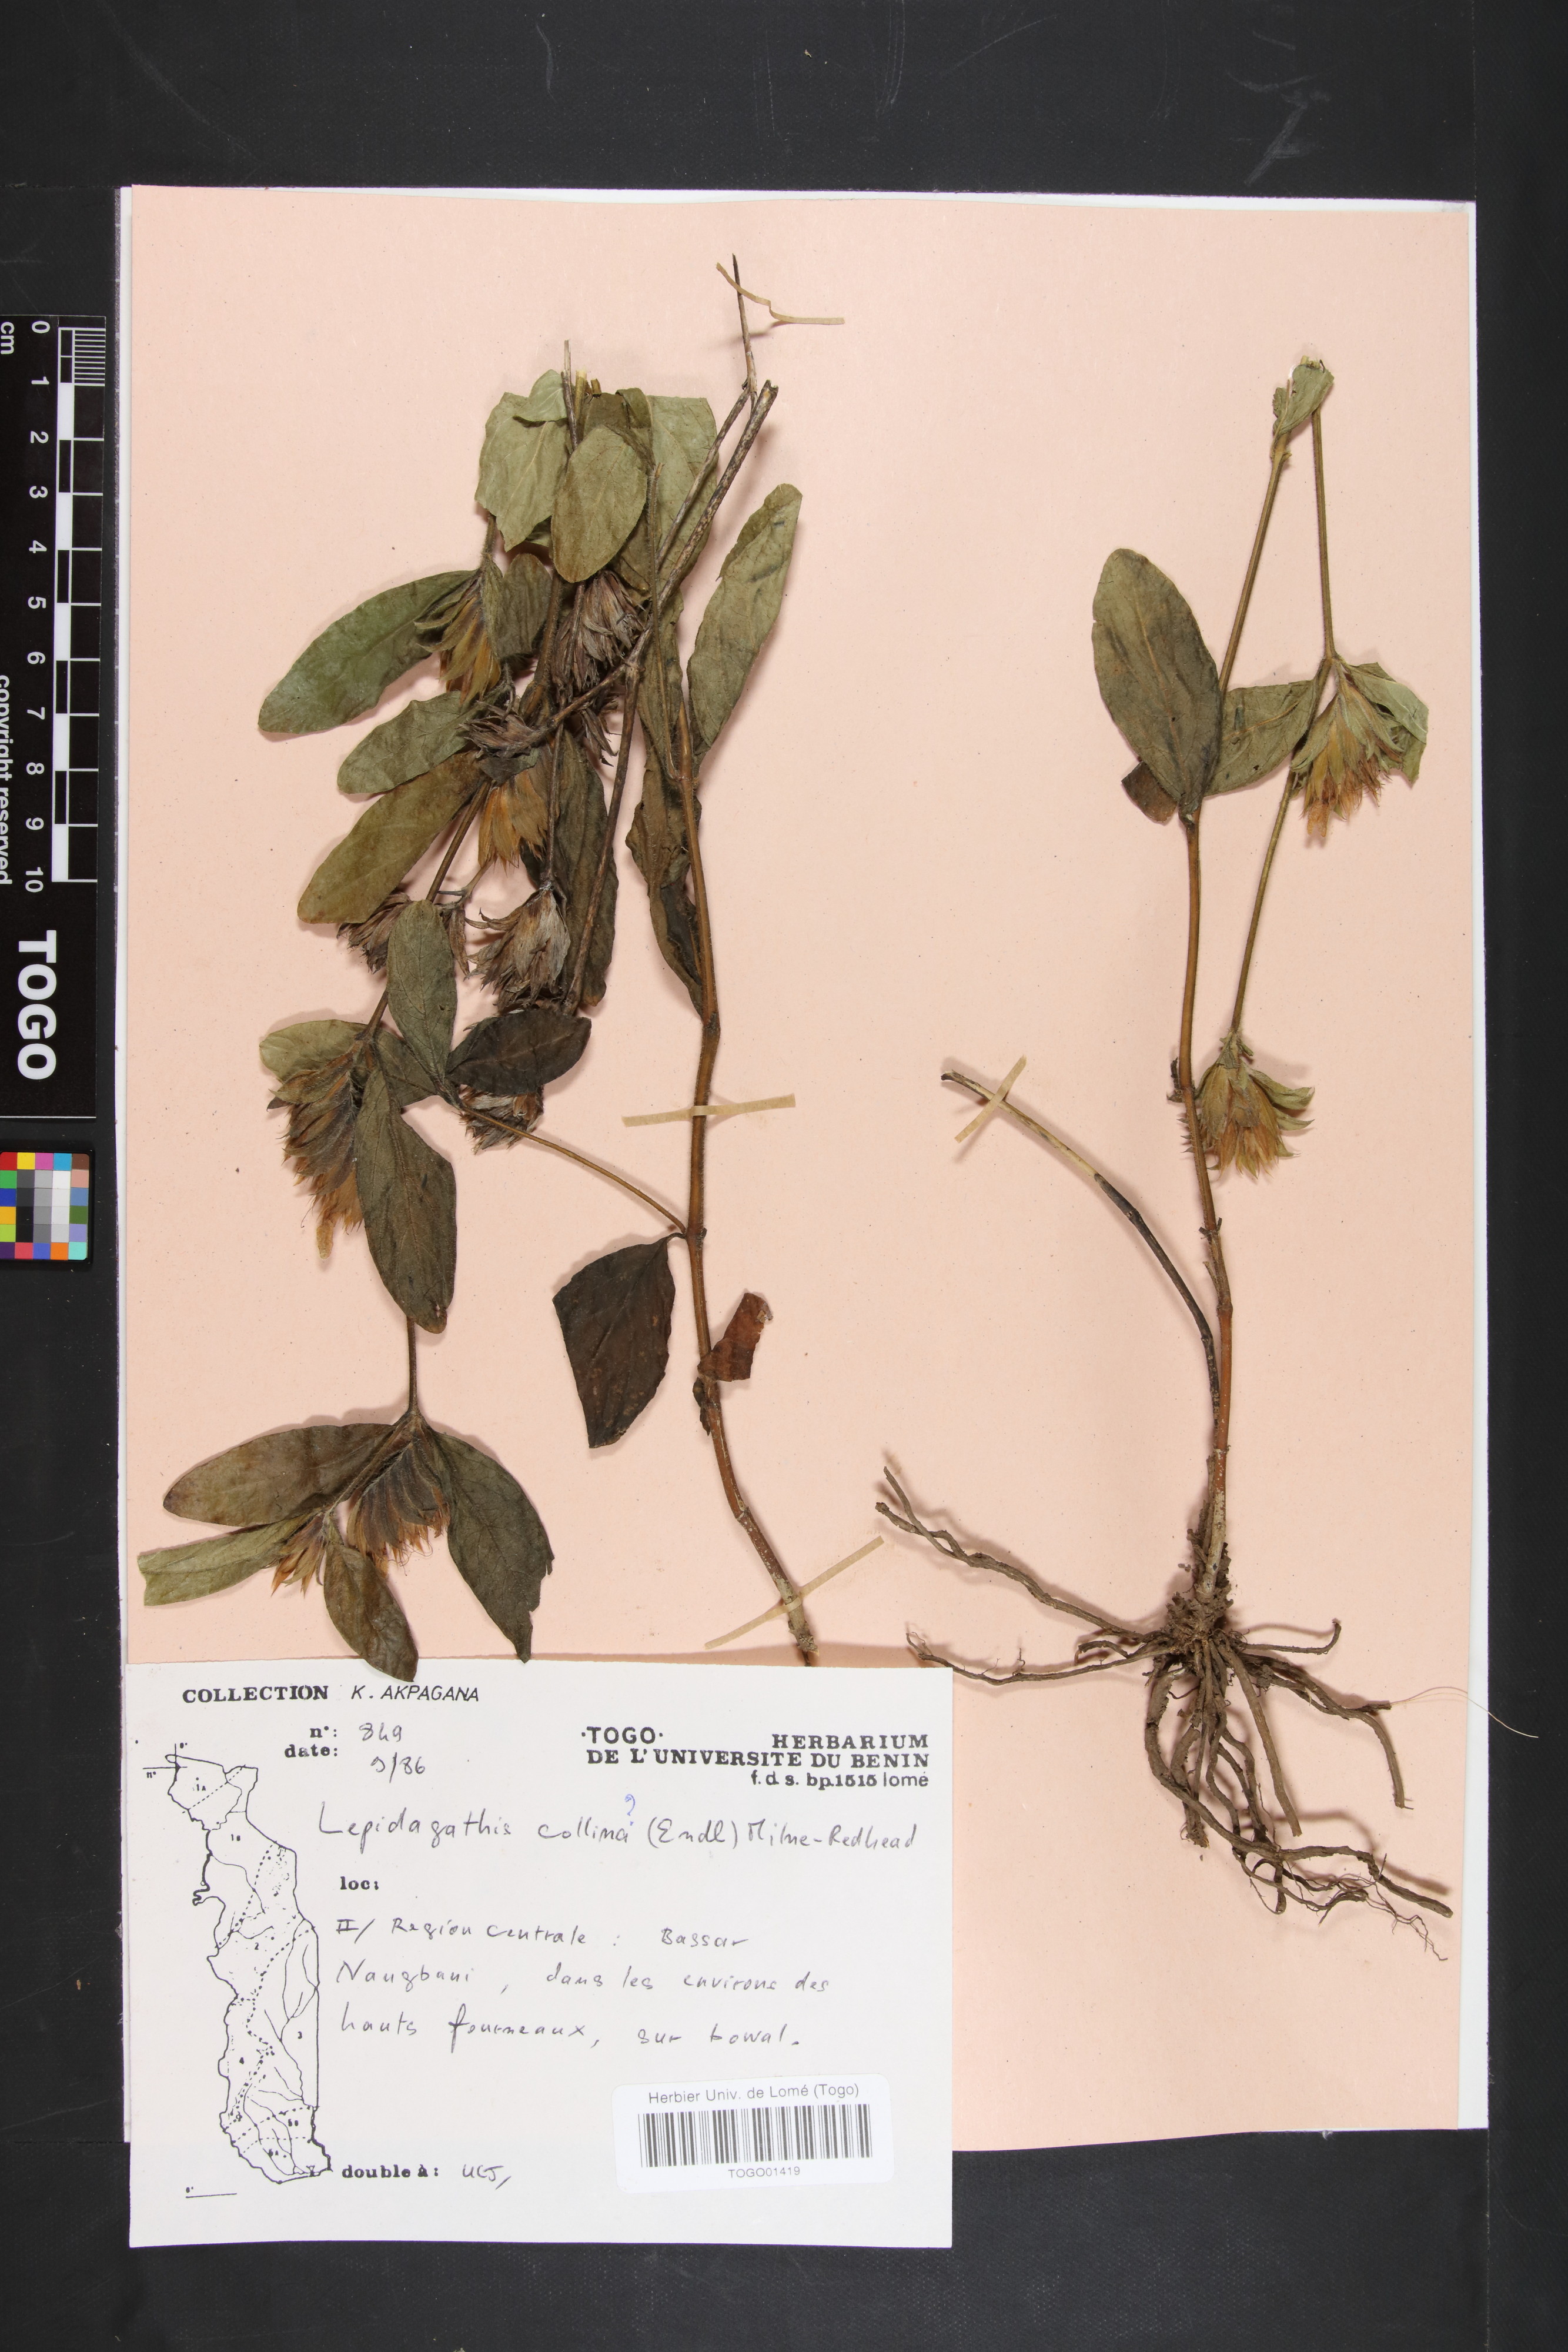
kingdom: Plantae
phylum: Tracheophyta
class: Magnoliopsida
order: Lamiales
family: Acanthaceae
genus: Lepidagathis
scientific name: Lepidagathis collina
